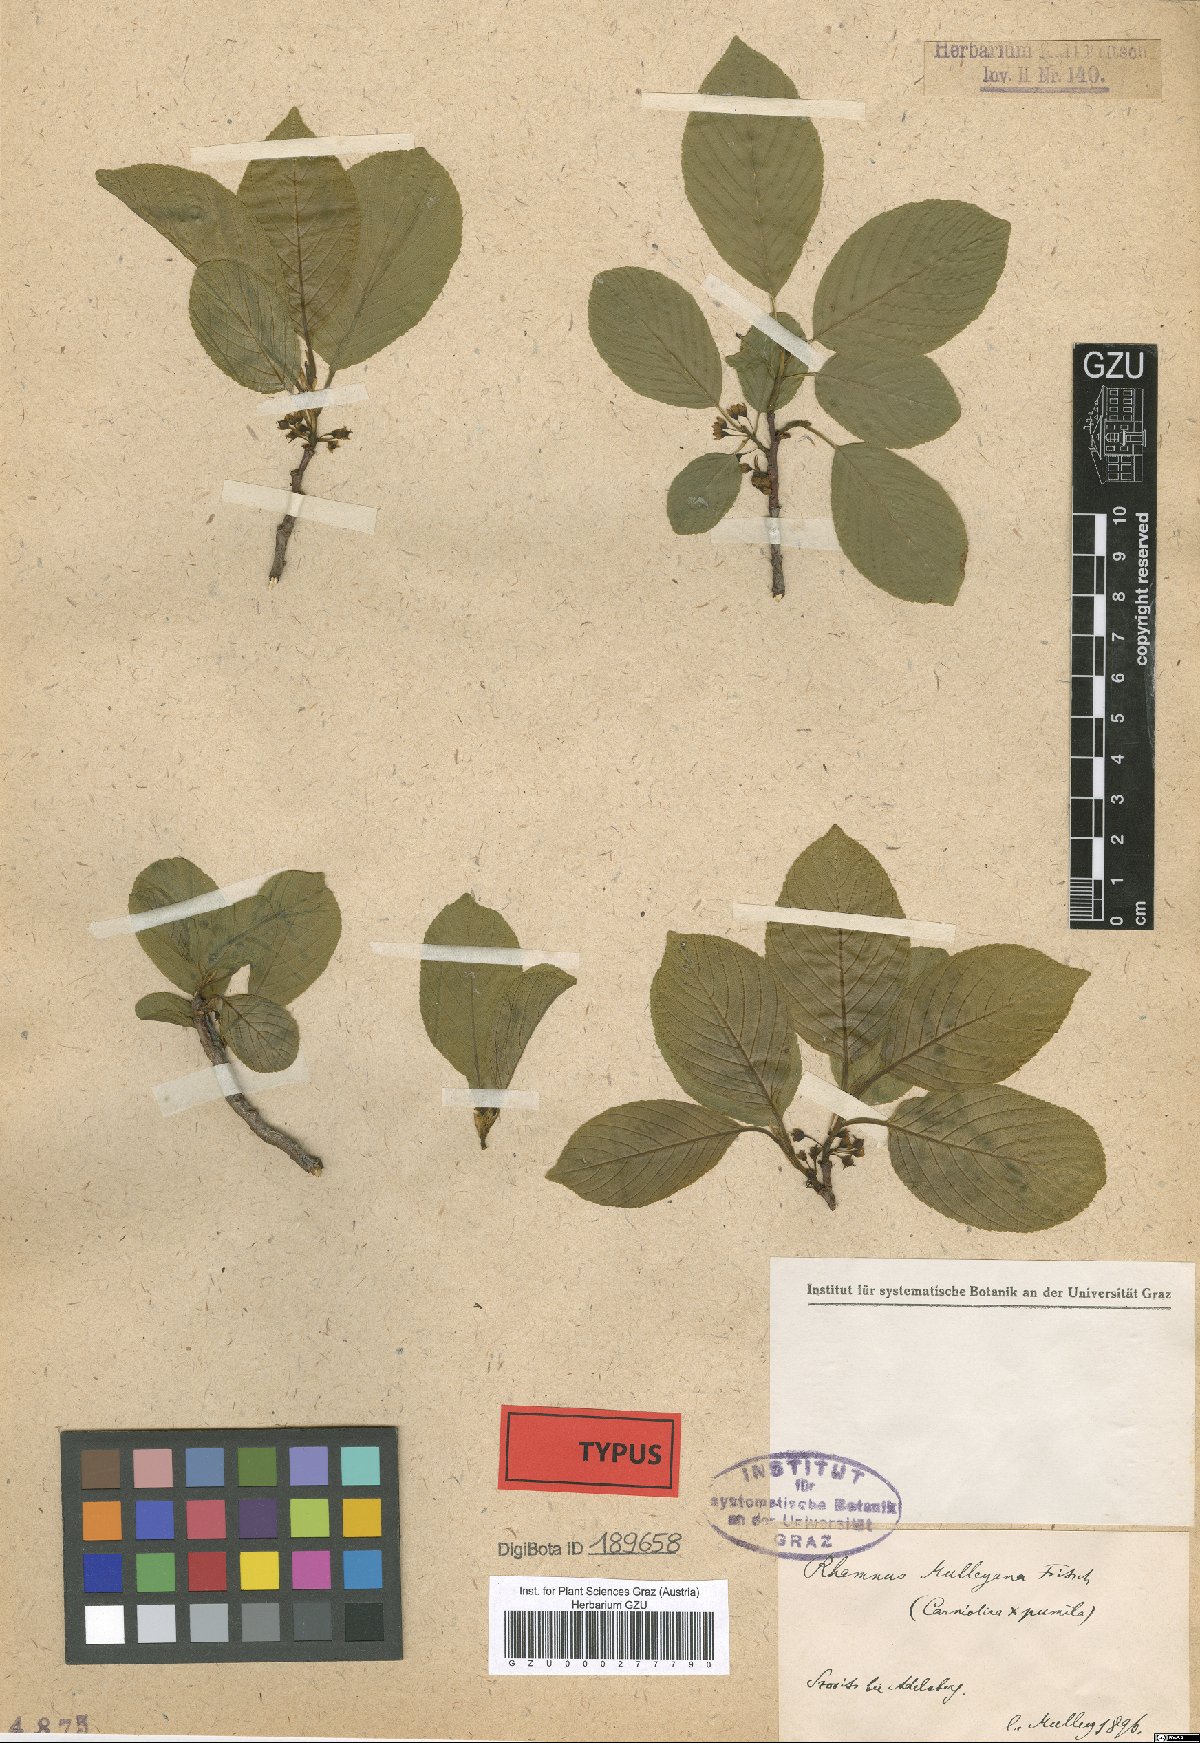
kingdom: Plantae
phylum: Tracheophyta
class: Magnoliopsida
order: Rosales
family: Rhamnaceae
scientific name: Rhamnaceae
